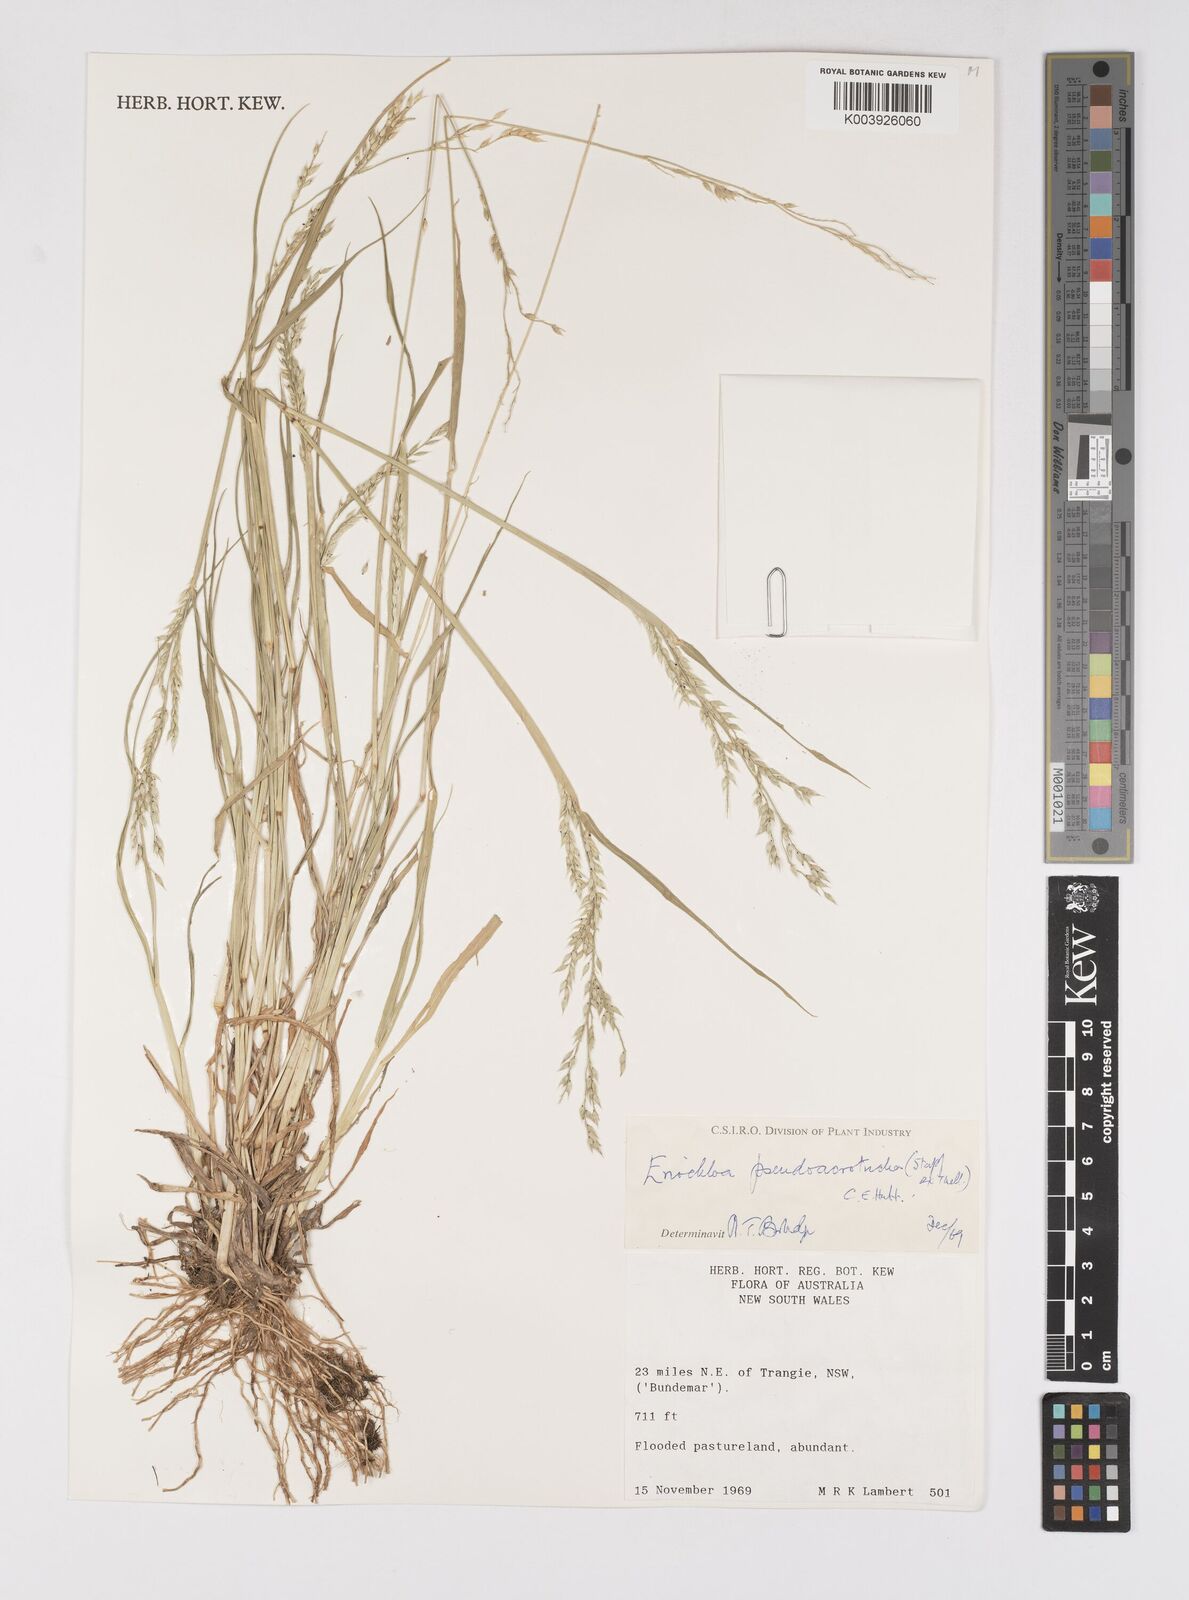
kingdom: Plantae
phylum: Tracheophyta
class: Liliopsida
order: Poales
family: Poaceae
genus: Eriochloa
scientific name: Eriochloa pseudoacrotricha
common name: Perennial cup-grass
